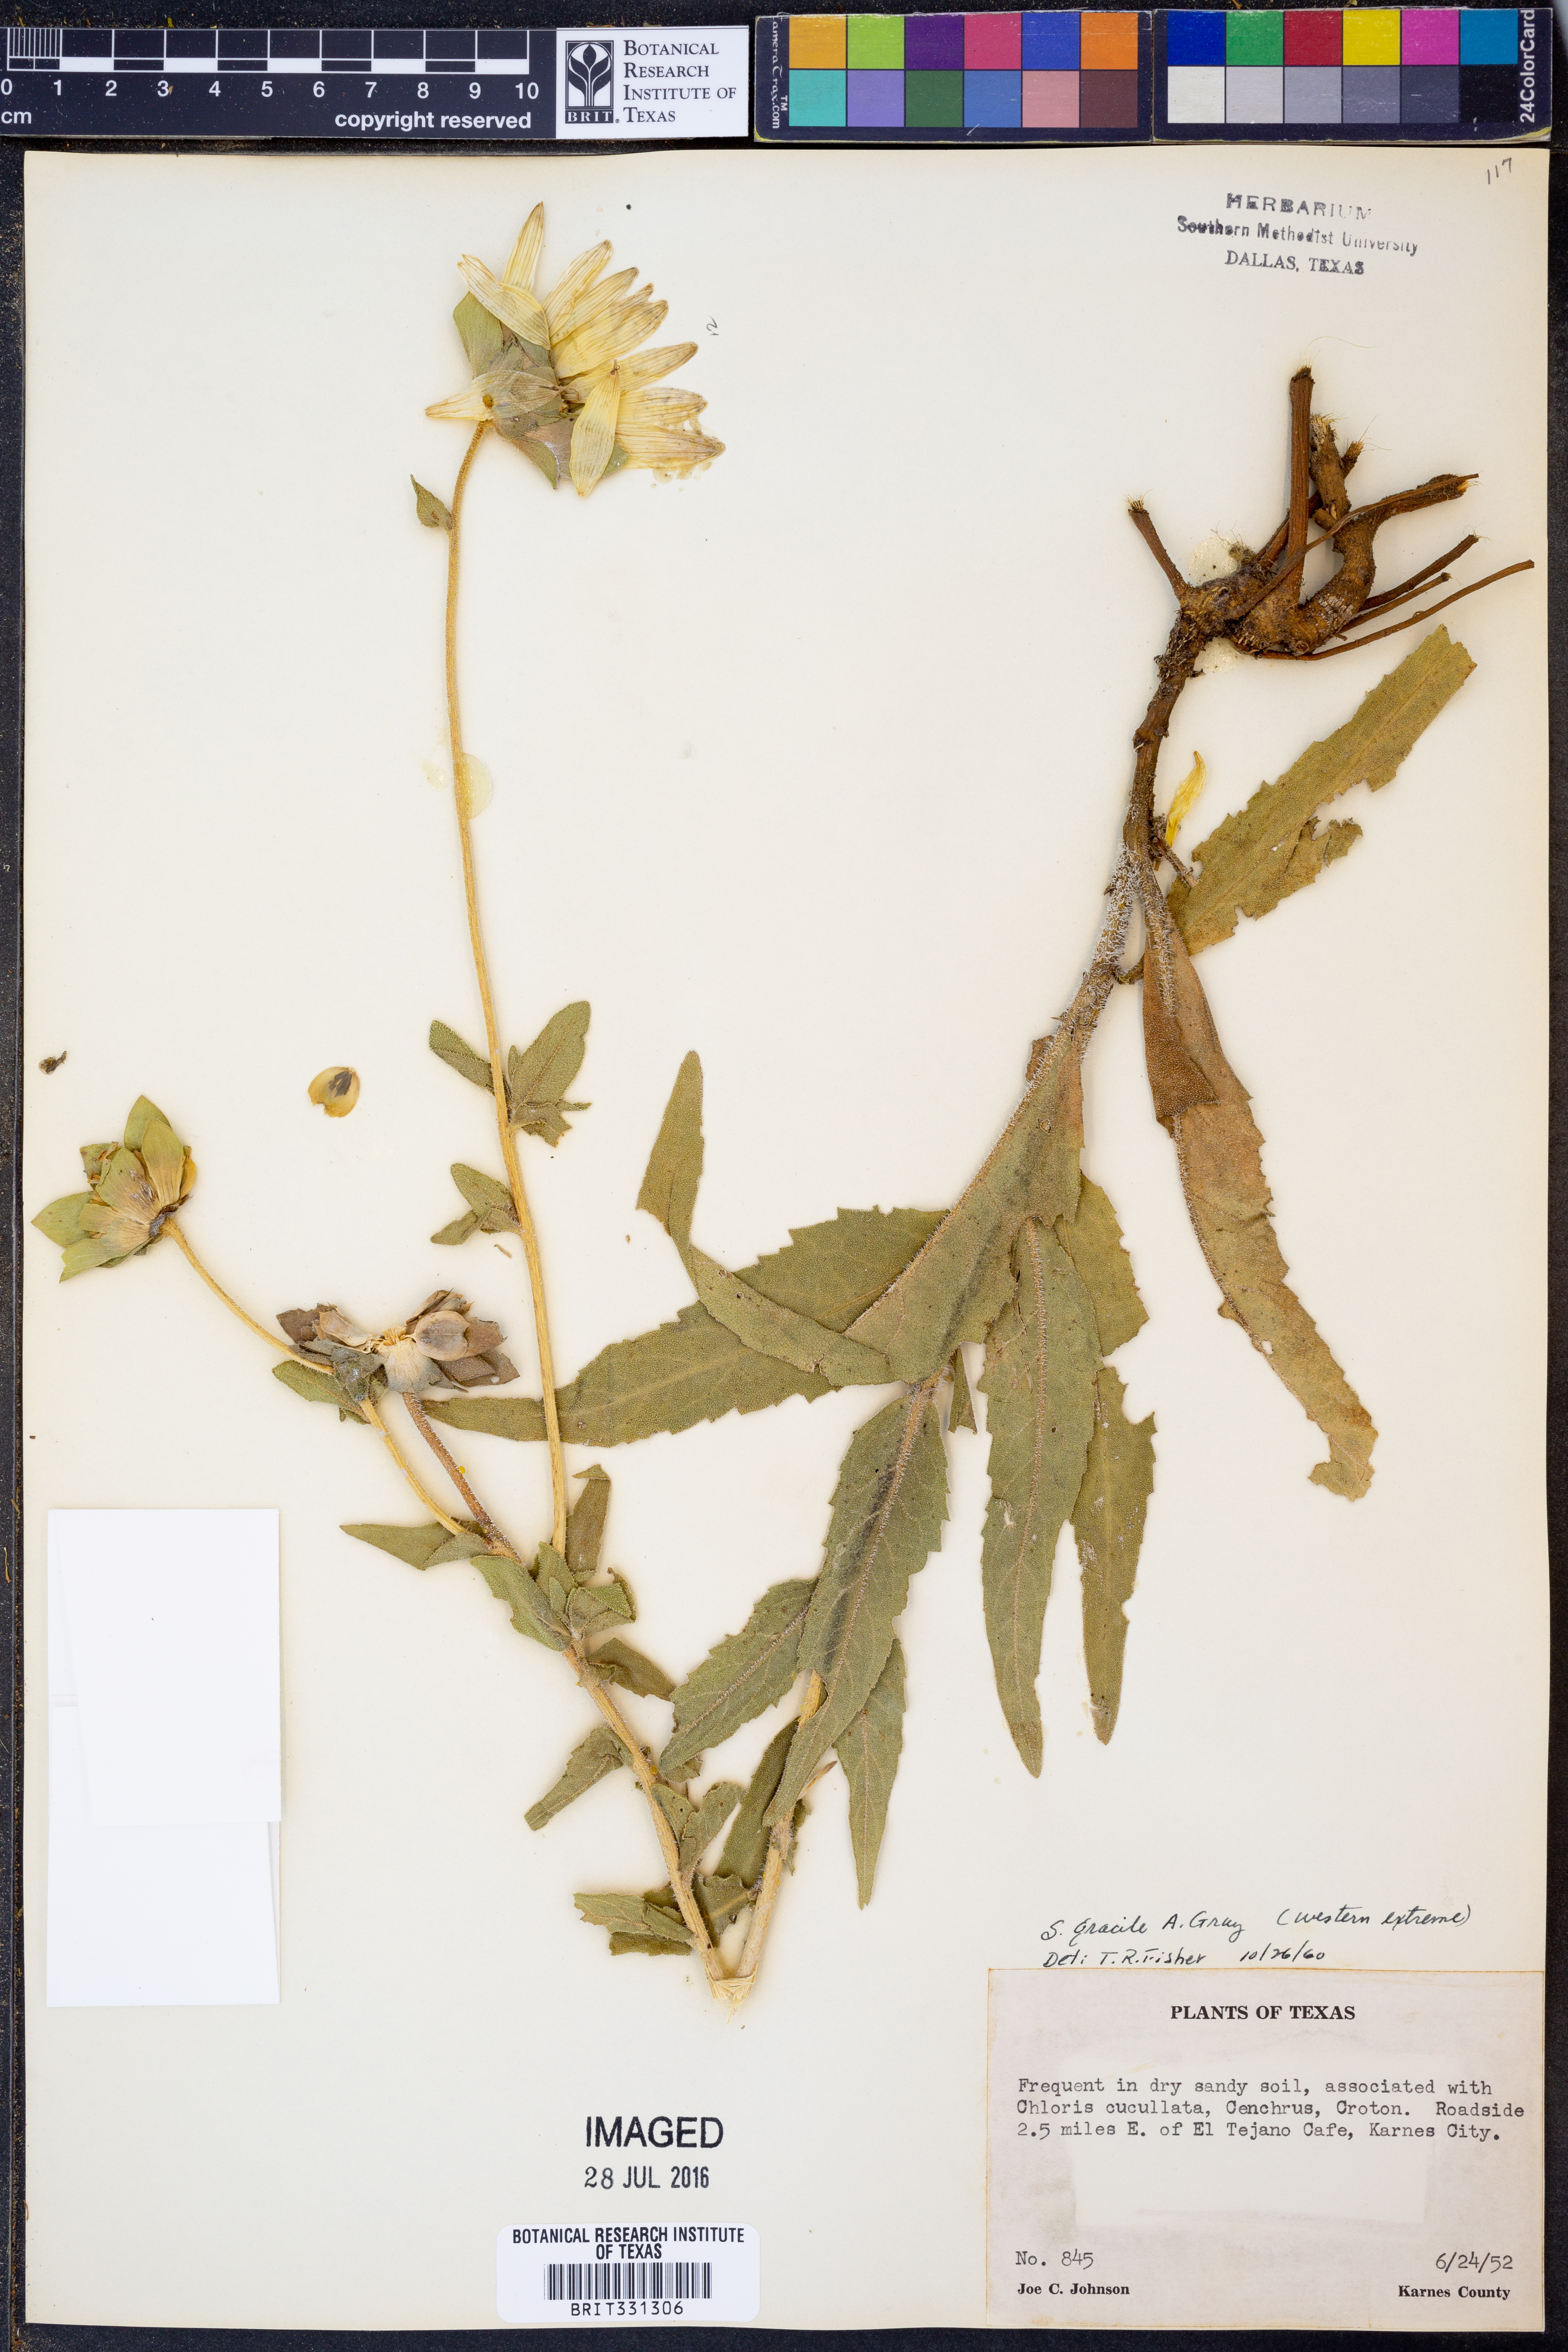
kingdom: Plantae
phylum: Tracheophyta
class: Magnoliopsida
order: Asterales
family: Asteraceae
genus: Silphium
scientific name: Silphium radula
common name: Roughleaf rosinweed
